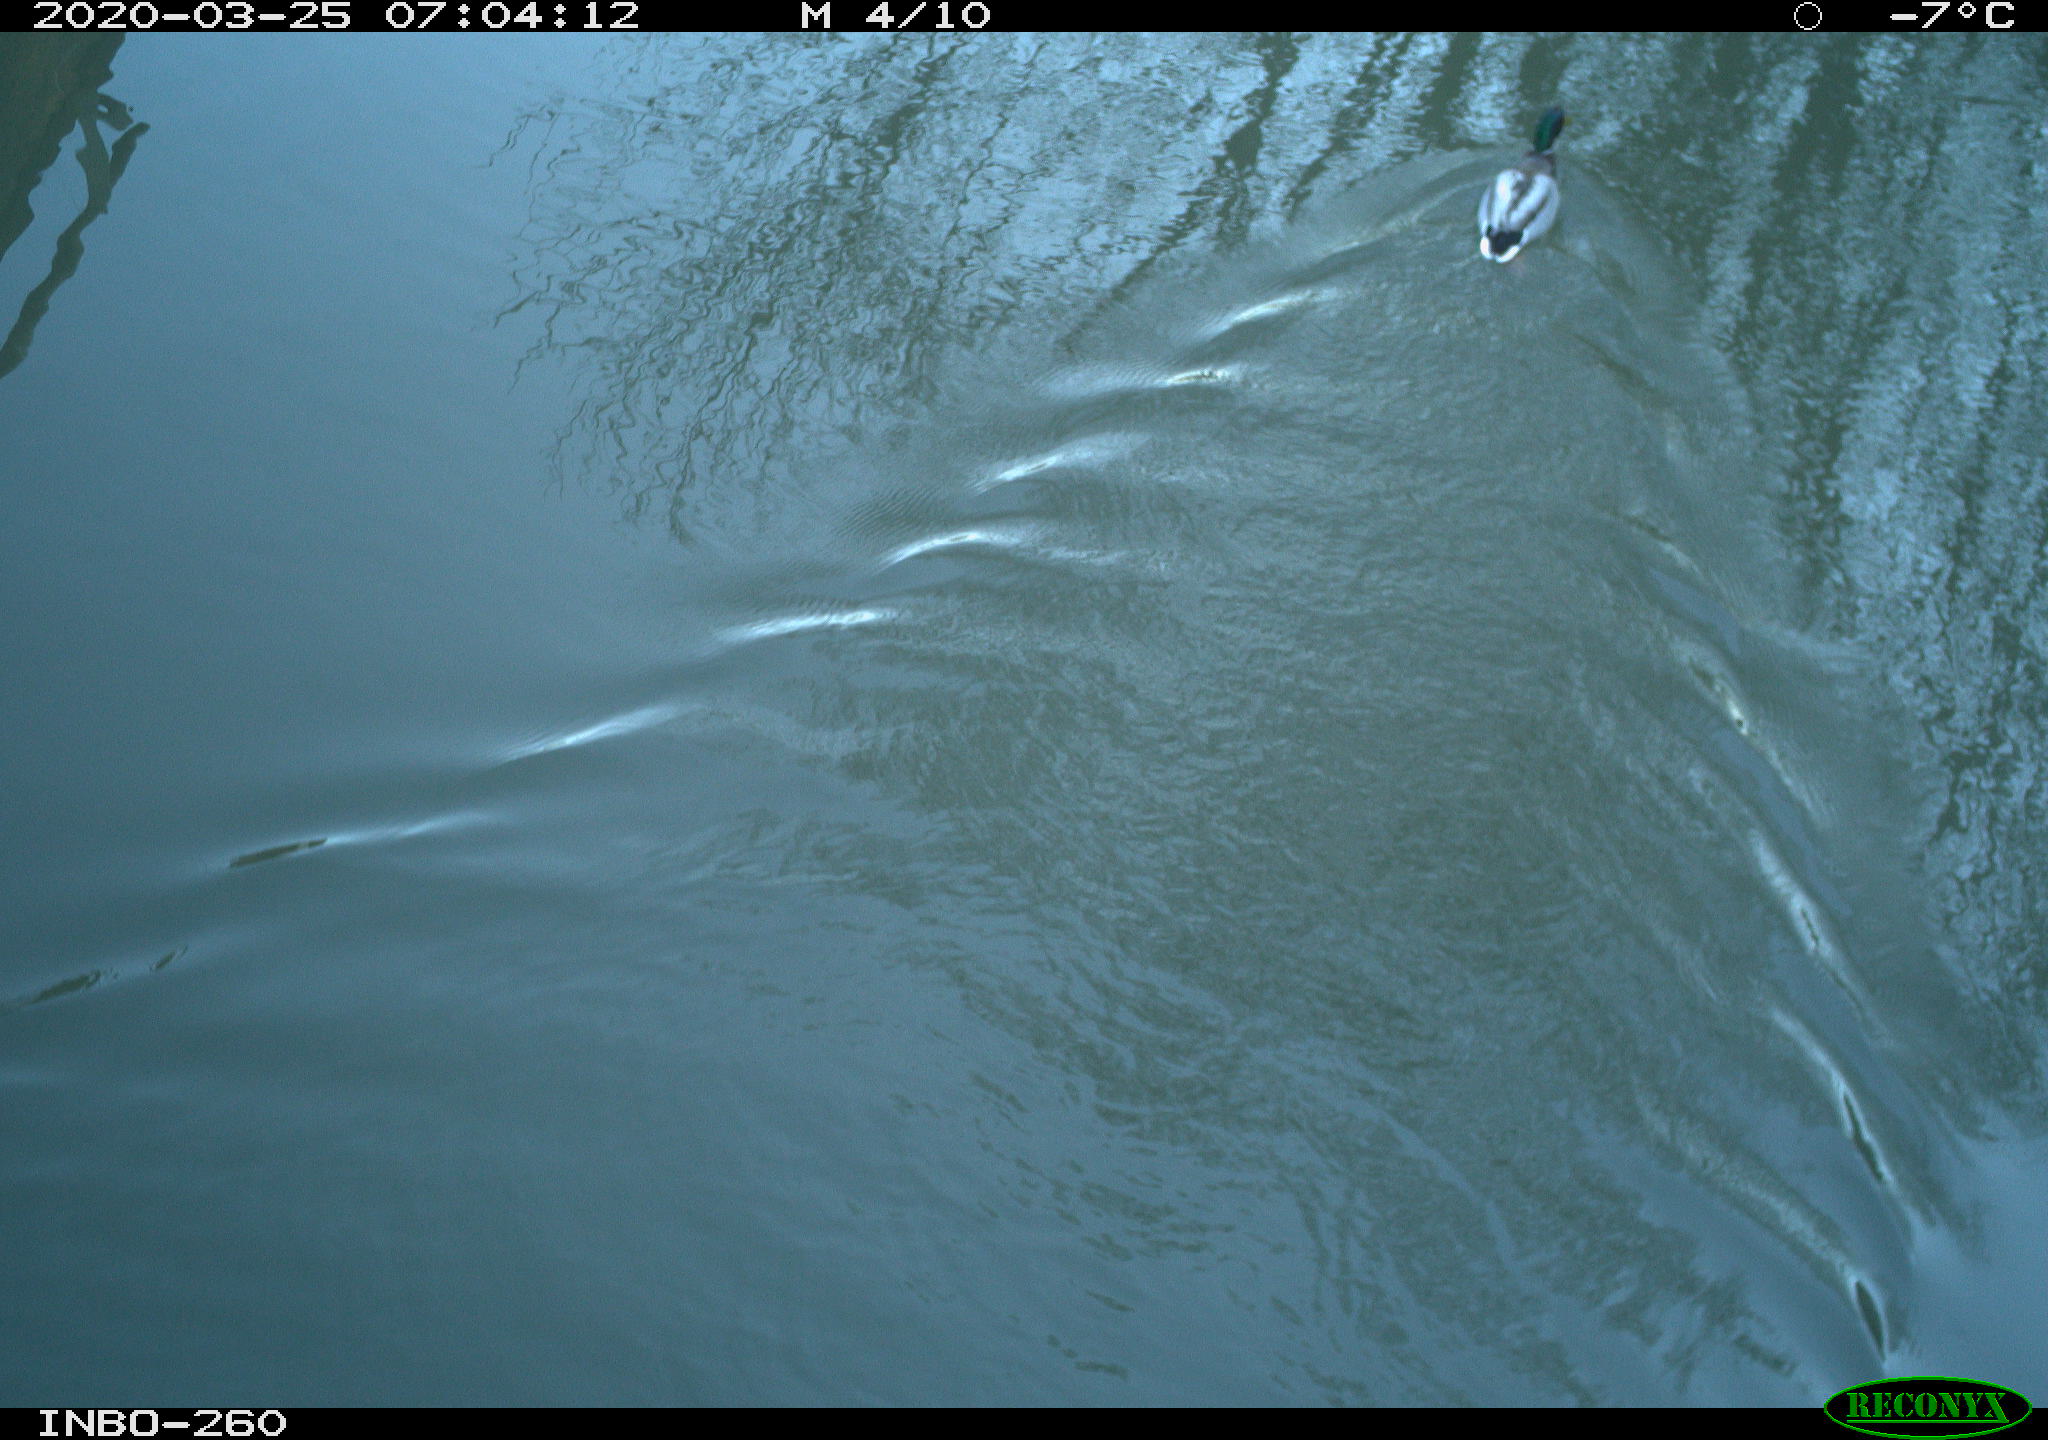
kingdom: Animalia
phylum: Chordata
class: Aves
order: Anseriformes
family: Anatidae
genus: Anas
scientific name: Anas platyrhynchos
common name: Mallard
